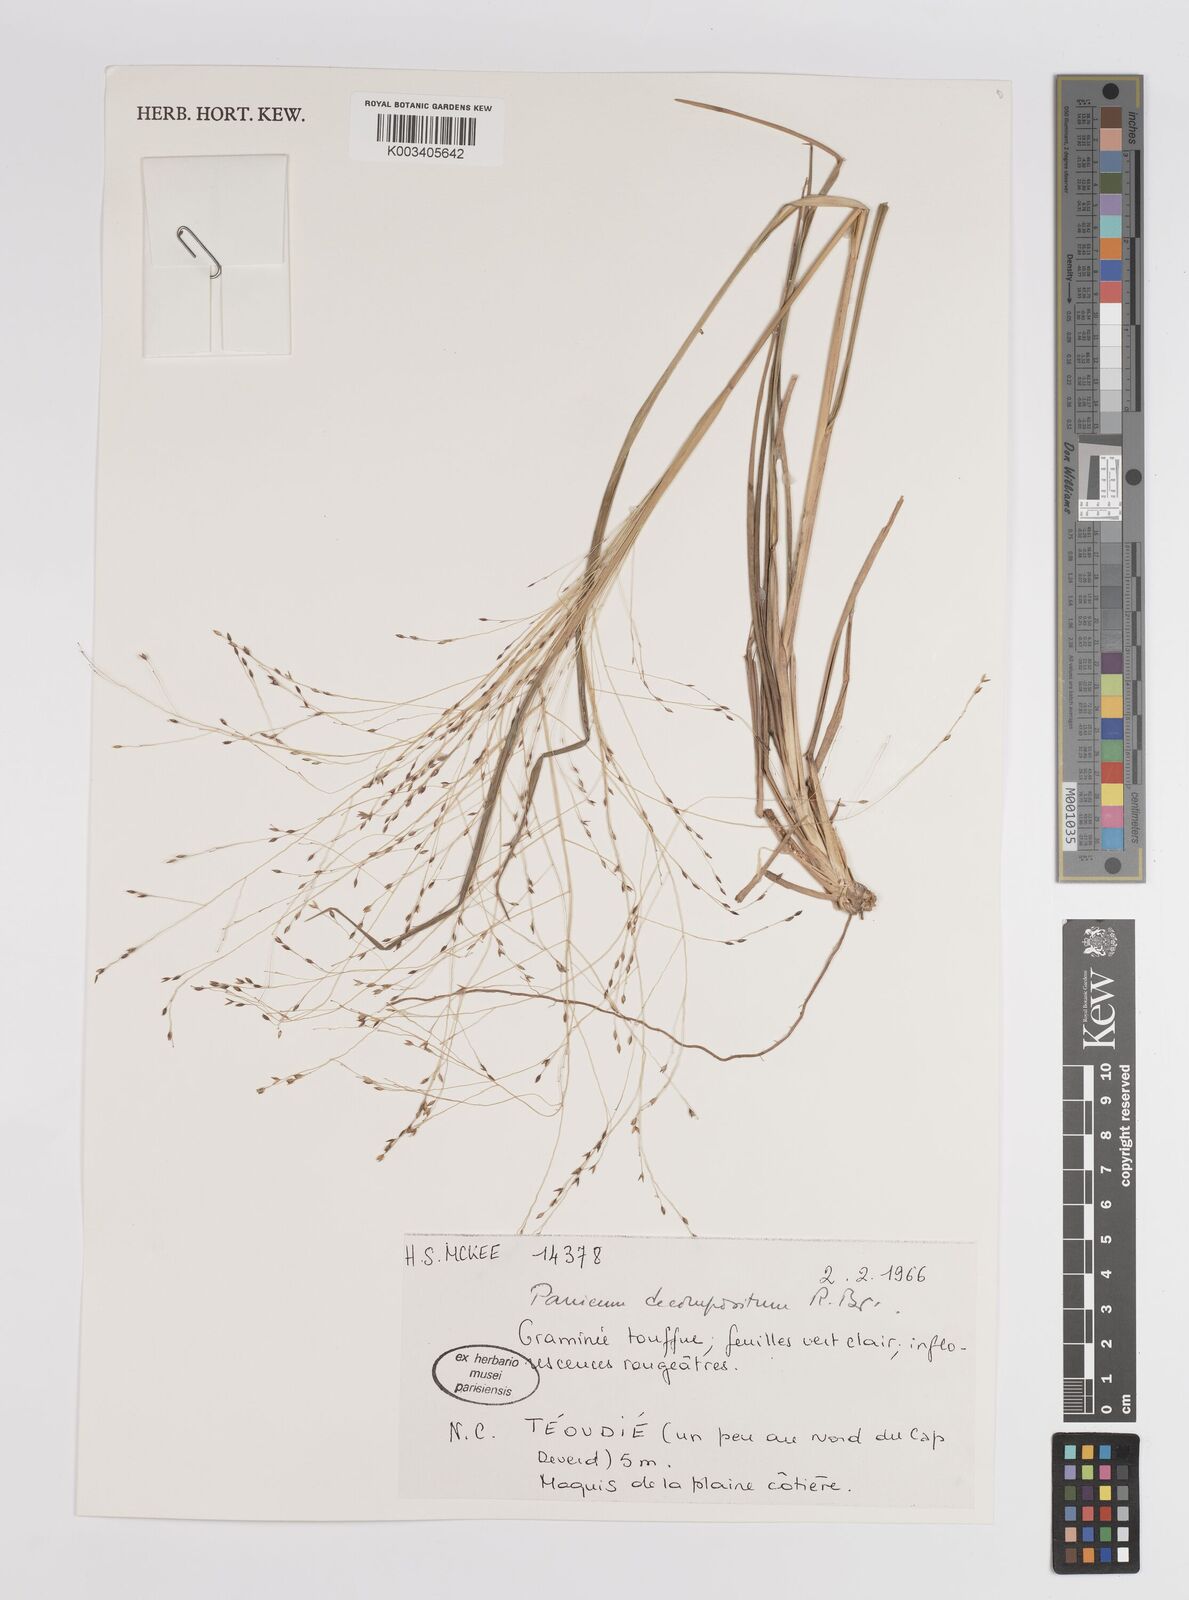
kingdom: Plantae
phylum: Tracheophyta
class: Liliopsida
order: Poales
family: Poaceae
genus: Panicum
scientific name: Panicum decompositum
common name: Australian millet
